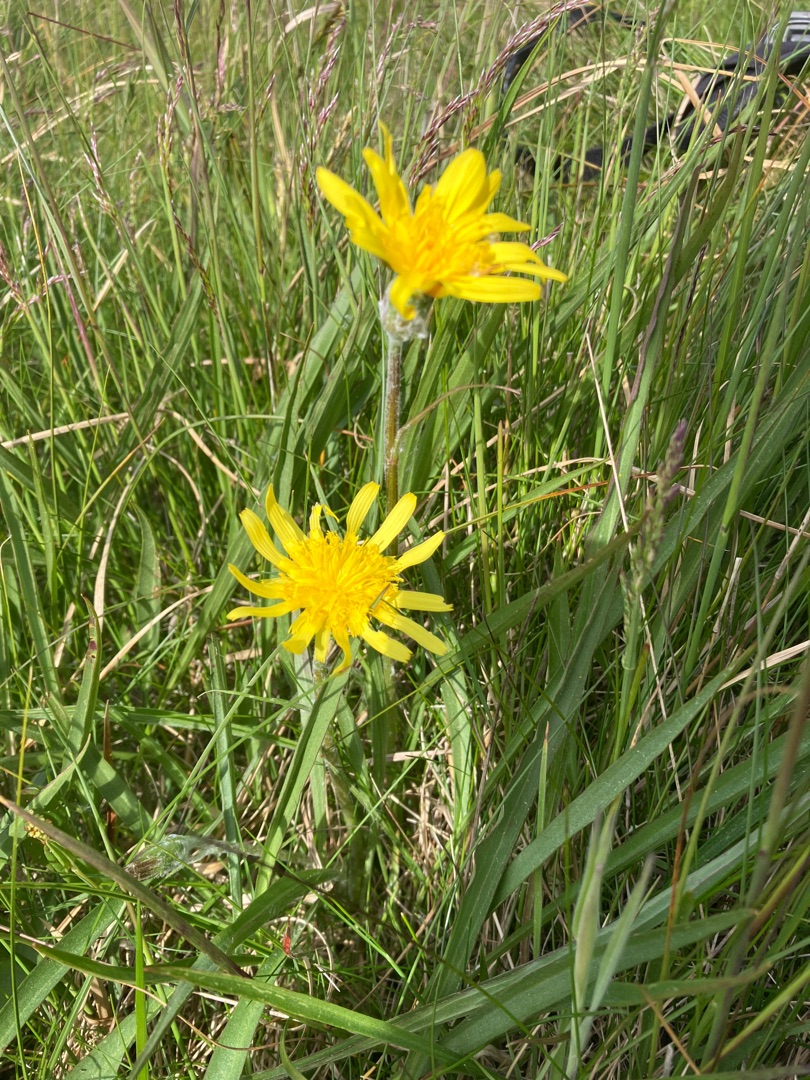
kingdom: Plantae
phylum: Tracheophyta
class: Magnoliopsida
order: Asterales
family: Asteraceae
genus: Scorzonera
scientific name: Scorzonera humilis
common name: Lav skorsoner
